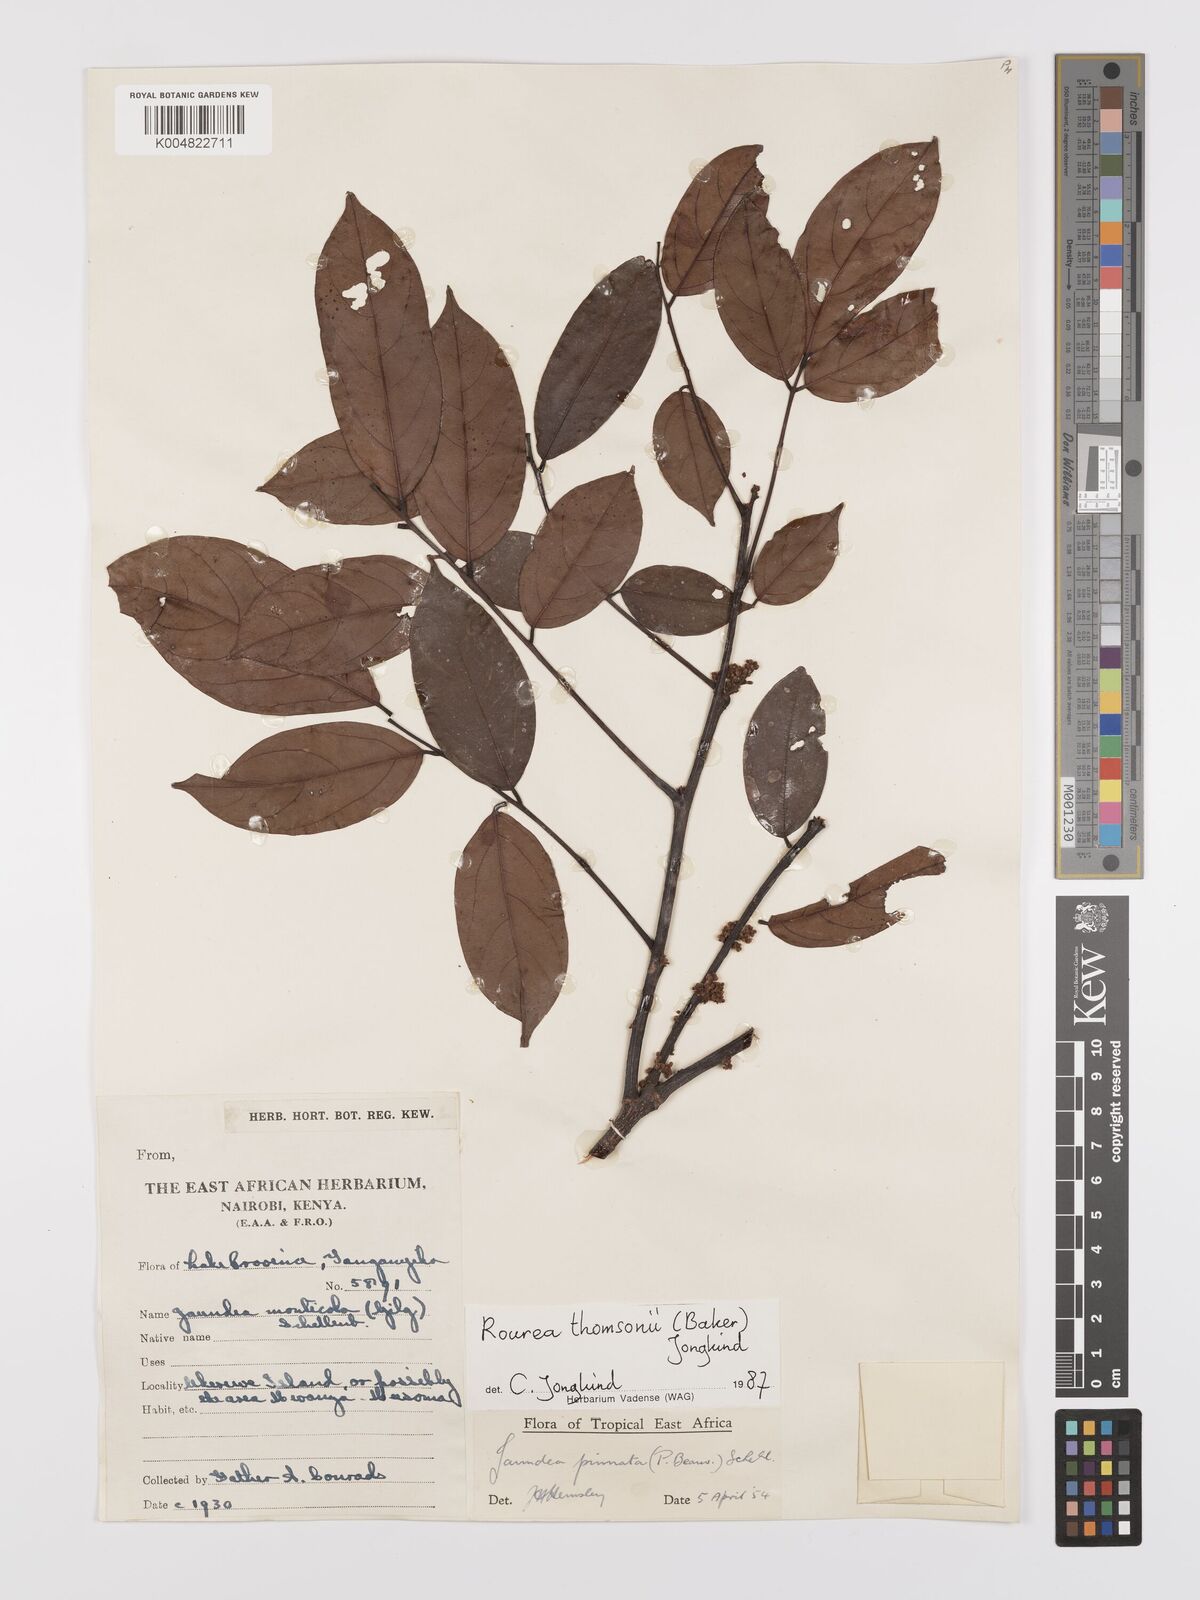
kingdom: Plantae
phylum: Tracheophyta
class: Magnoliopsida
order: Oxalidales
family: Connaraceae
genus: Rourea
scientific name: Rourea pinnata
